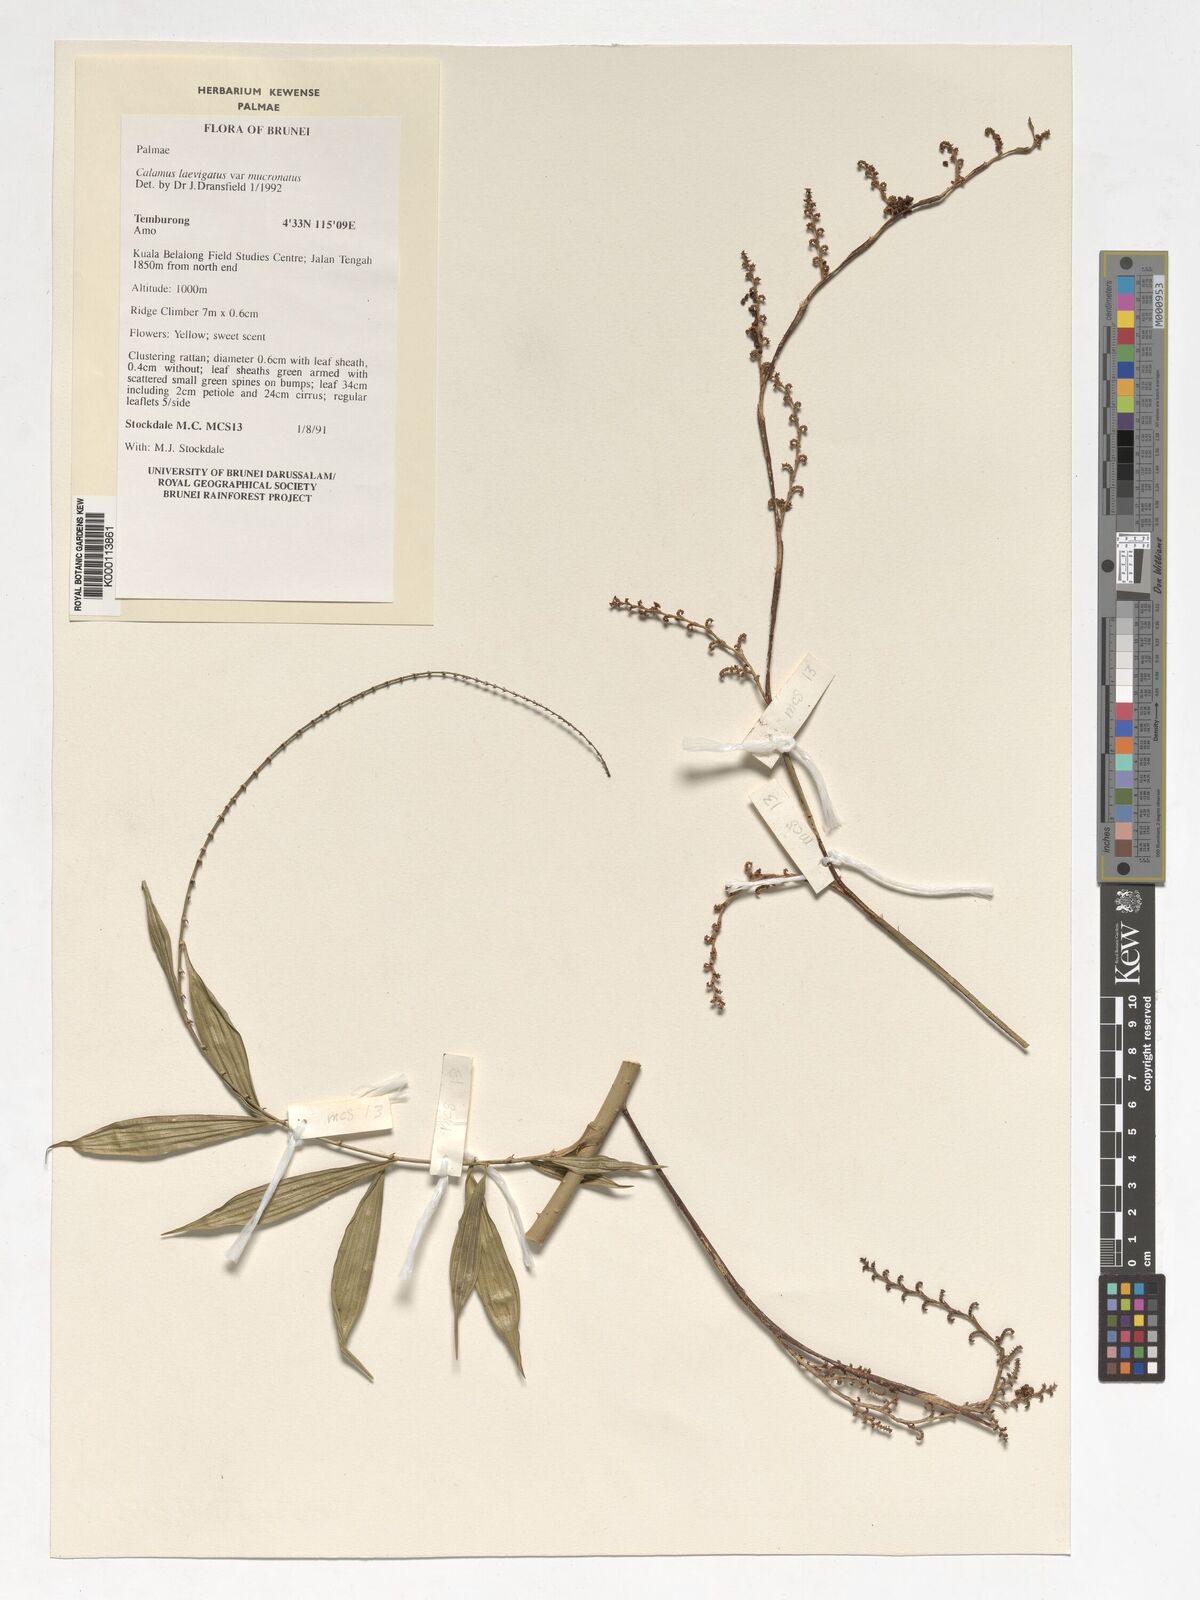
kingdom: Plantae
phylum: Tracheophyta
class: Liliopsida
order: Arecales
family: Arecaceae
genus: Calamus
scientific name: Calamus plicatus
